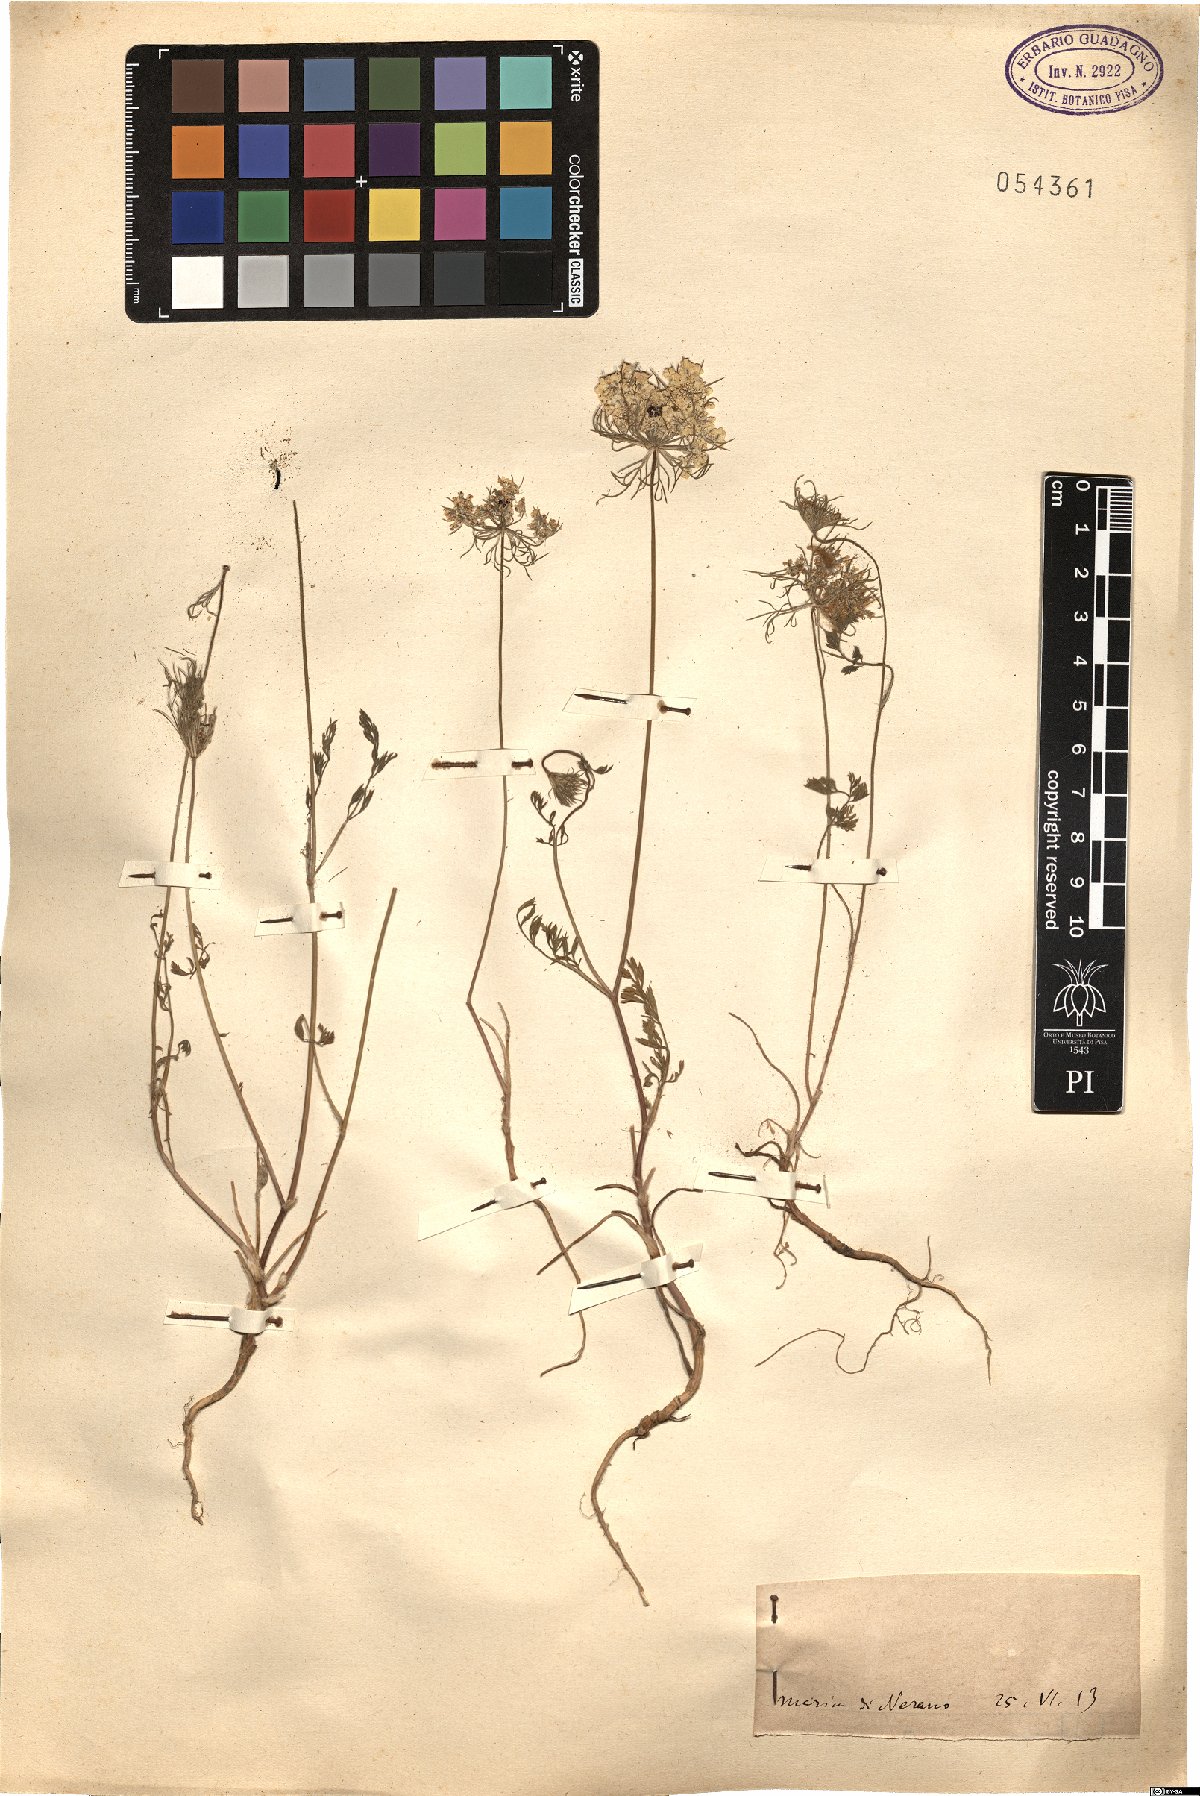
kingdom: Plantae
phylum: Tracheophyta
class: Magnoliopsida
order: Apiales
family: Apiaceae
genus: Daucus
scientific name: Daucus
